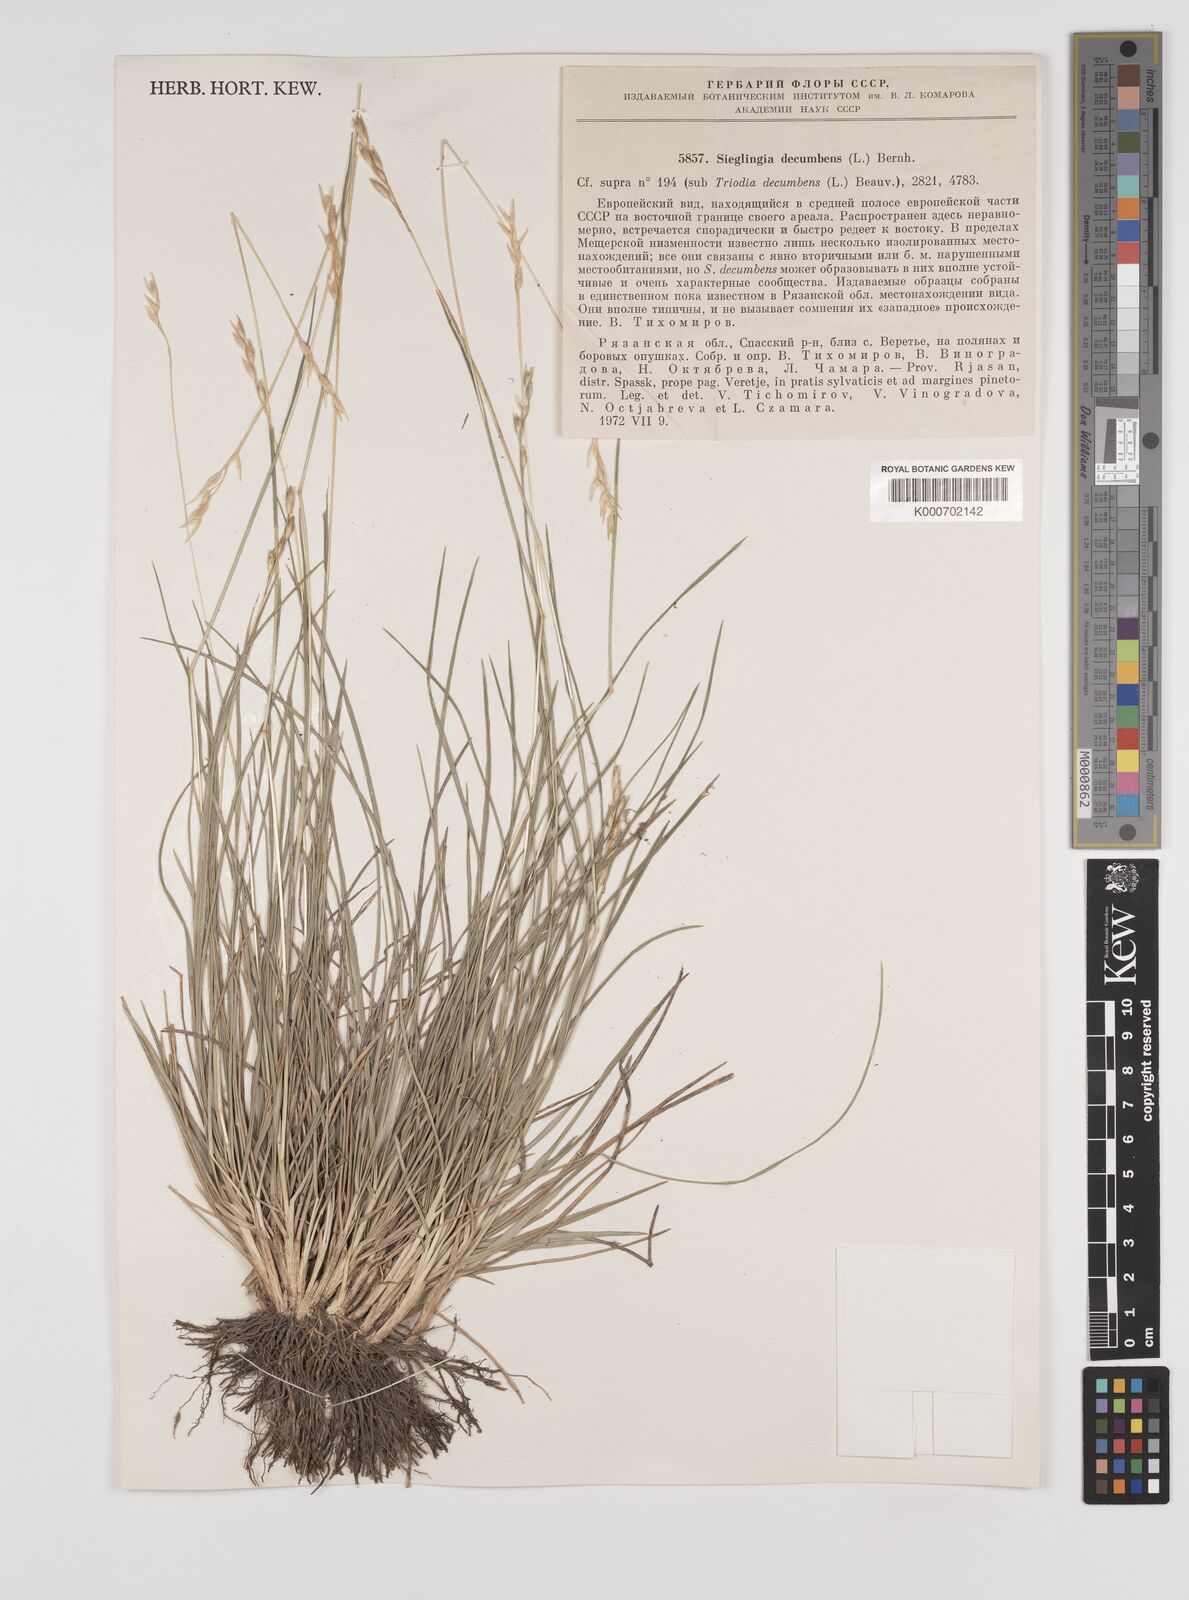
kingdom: Plantae
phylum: Tracheophyta
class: Liliopsida
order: Poales
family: Poaceae
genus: Danthonia
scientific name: Danthonia decumbens
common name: Common heathgrass
